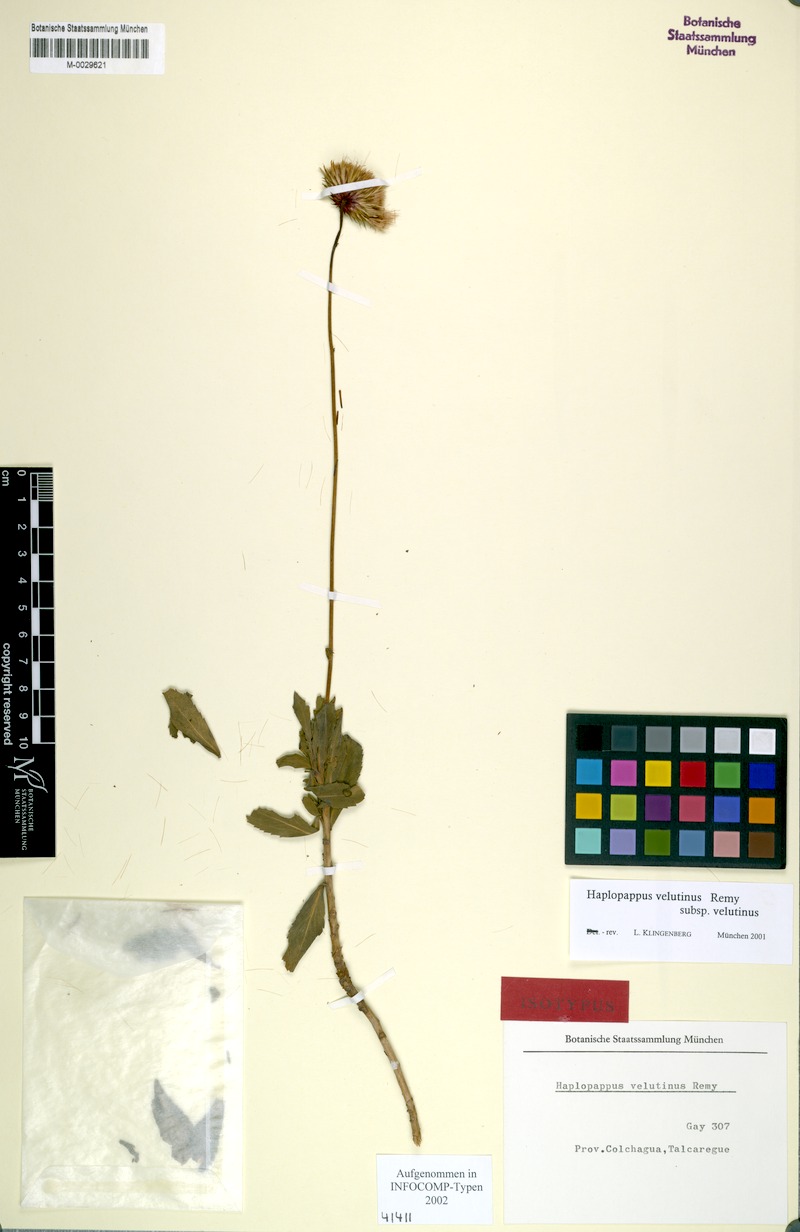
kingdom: Plantae
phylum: Tracheophyta
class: Magnoliopsida
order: Asterales
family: Asteraceae
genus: Haplopappus
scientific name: Haplopappus velutinus
